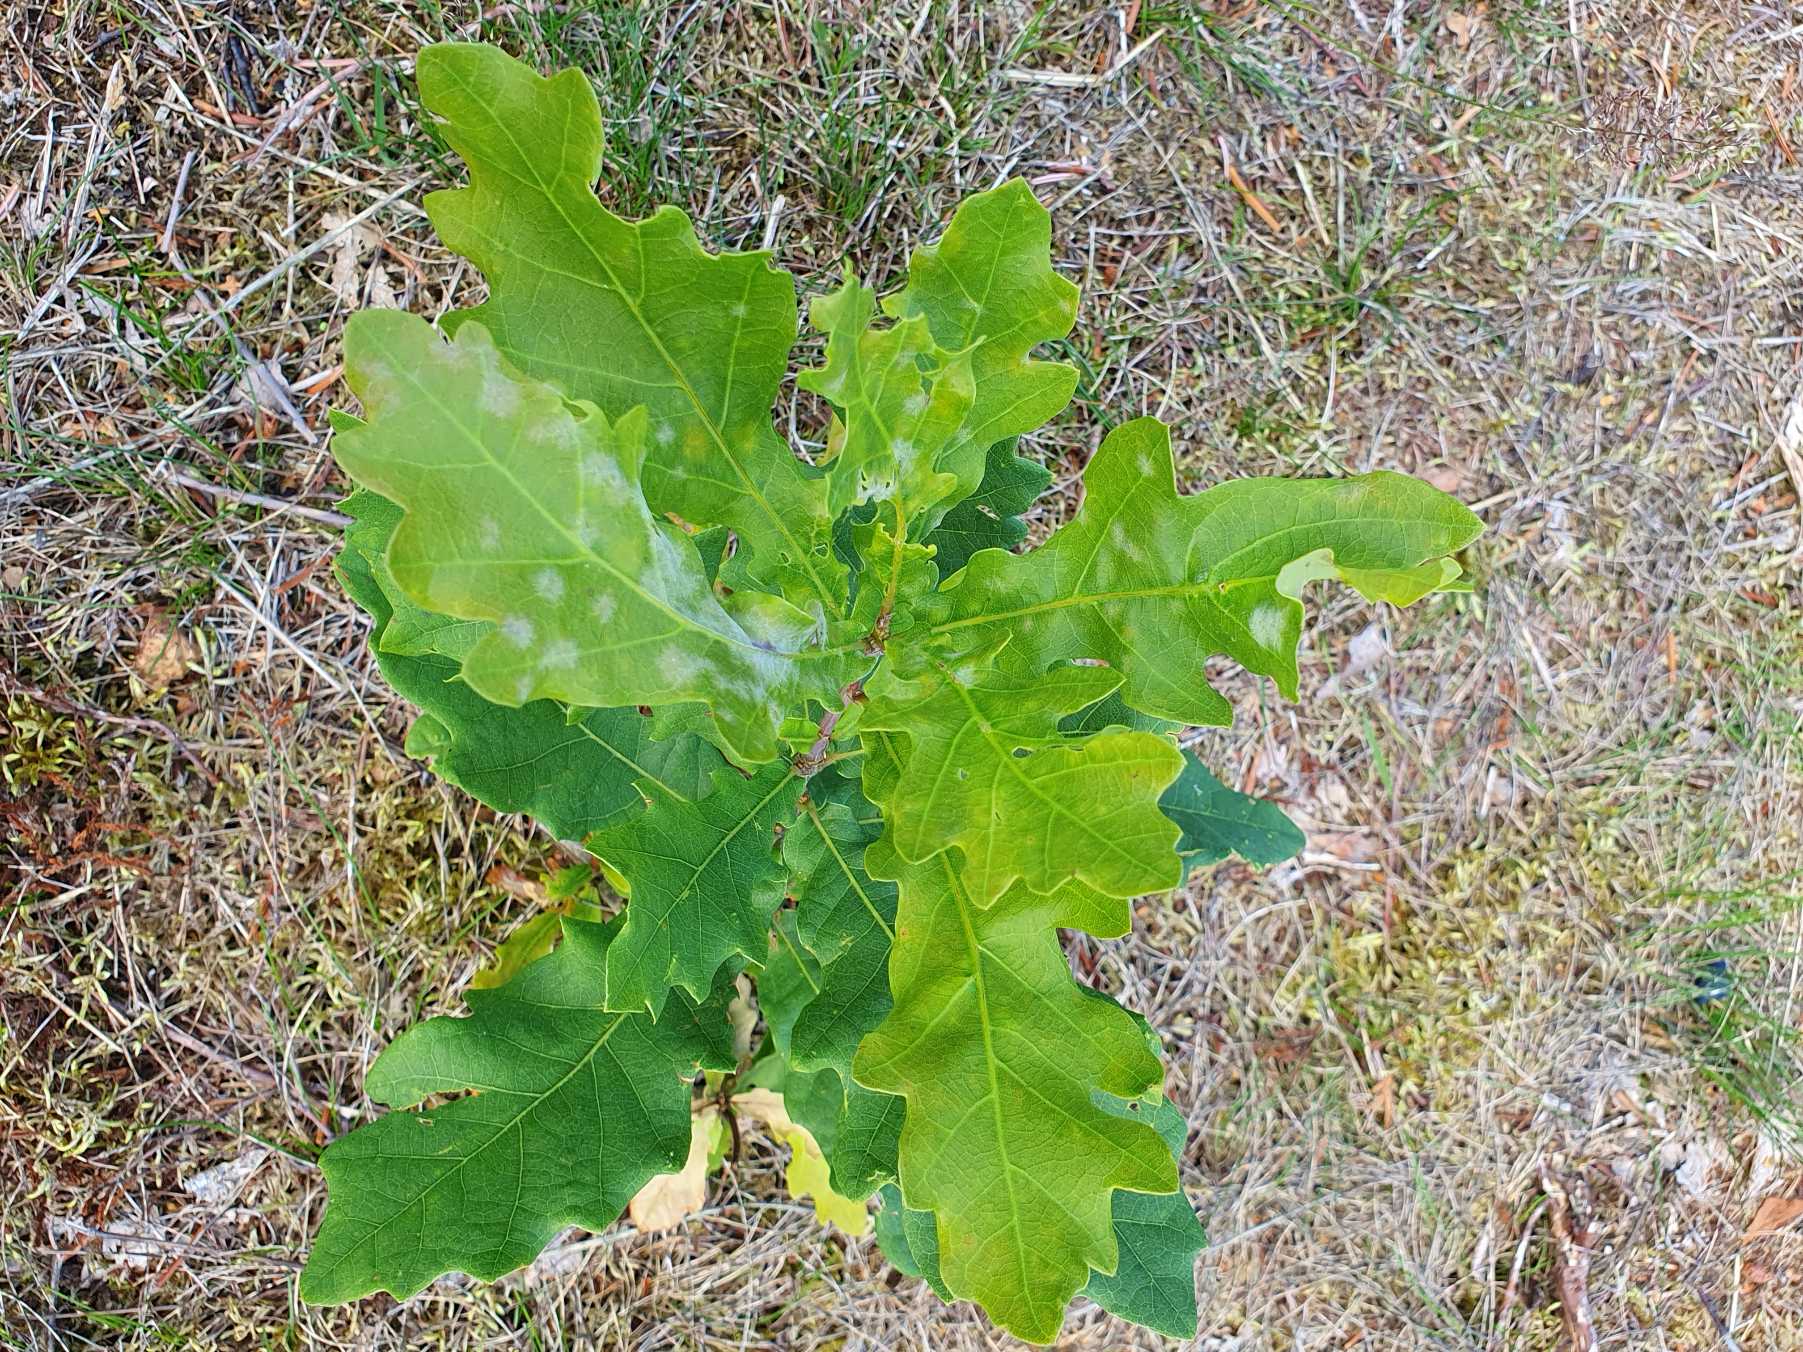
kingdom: Plantae
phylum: Tracheophyta
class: Magnoliopsida
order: Fagales
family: Fagaceae
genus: Quercus
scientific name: Quercus robur
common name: Stilk-eg/almindelig eg
